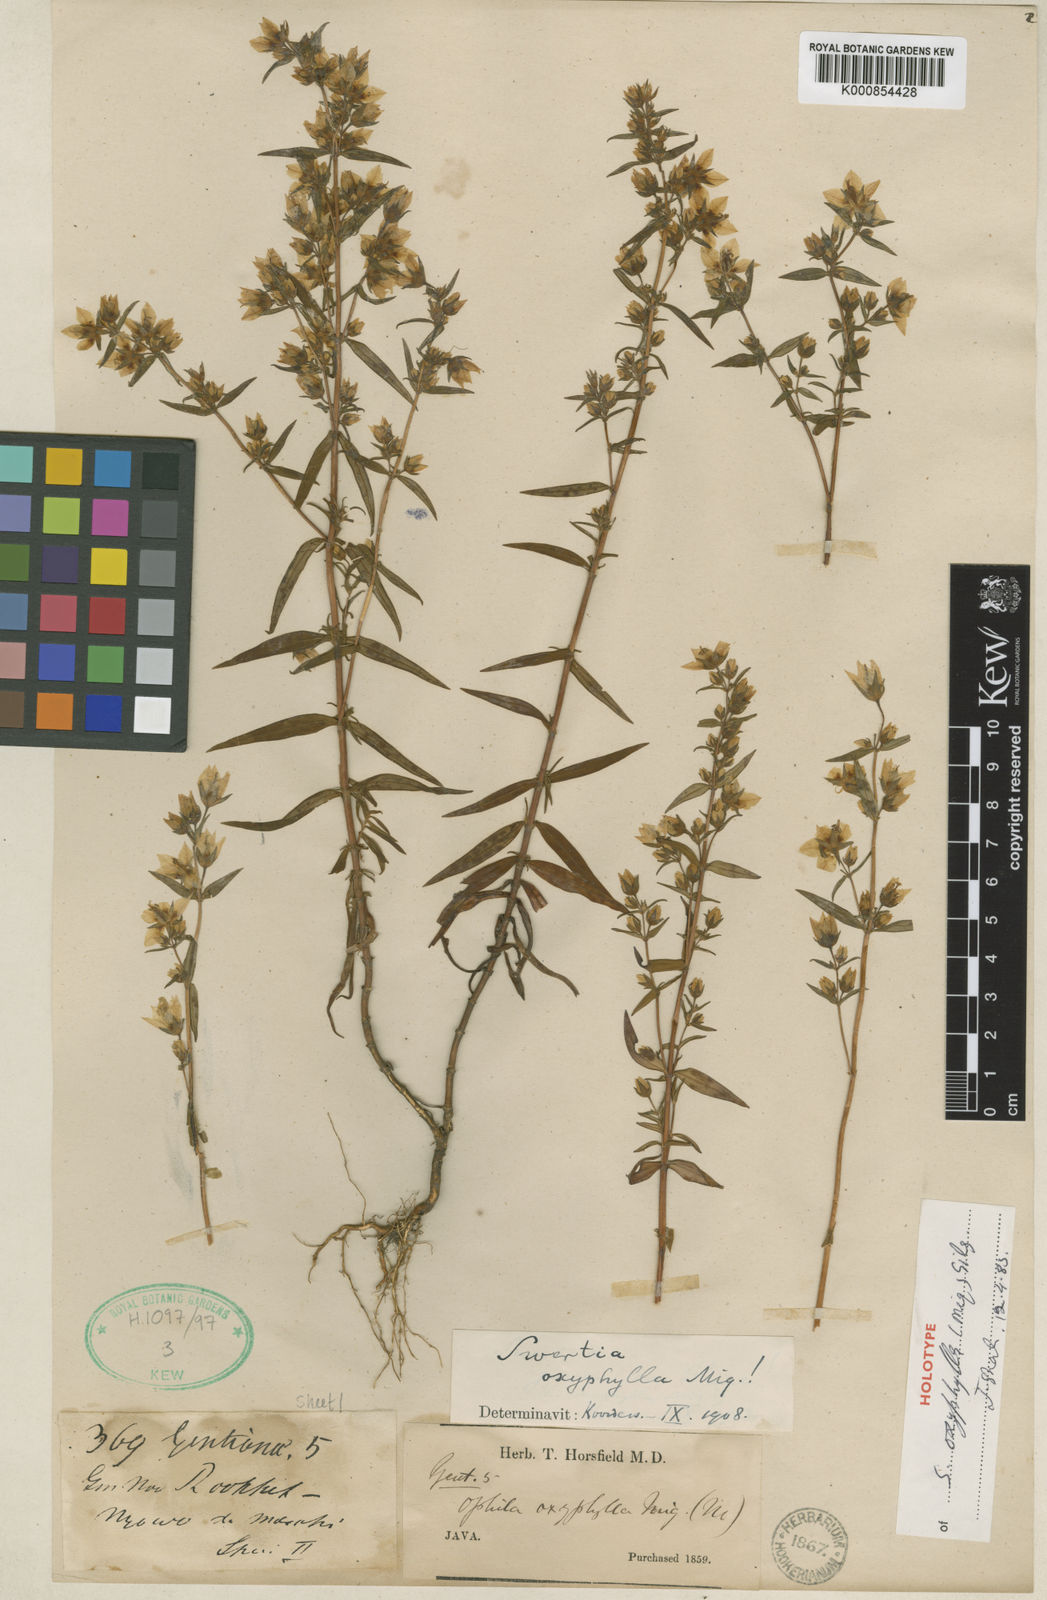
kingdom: Plantae
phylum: Tracheophyta
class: Magnoliopsida
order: Gentianales
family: Gentianaceae
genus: Swertia
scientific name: Swertia
